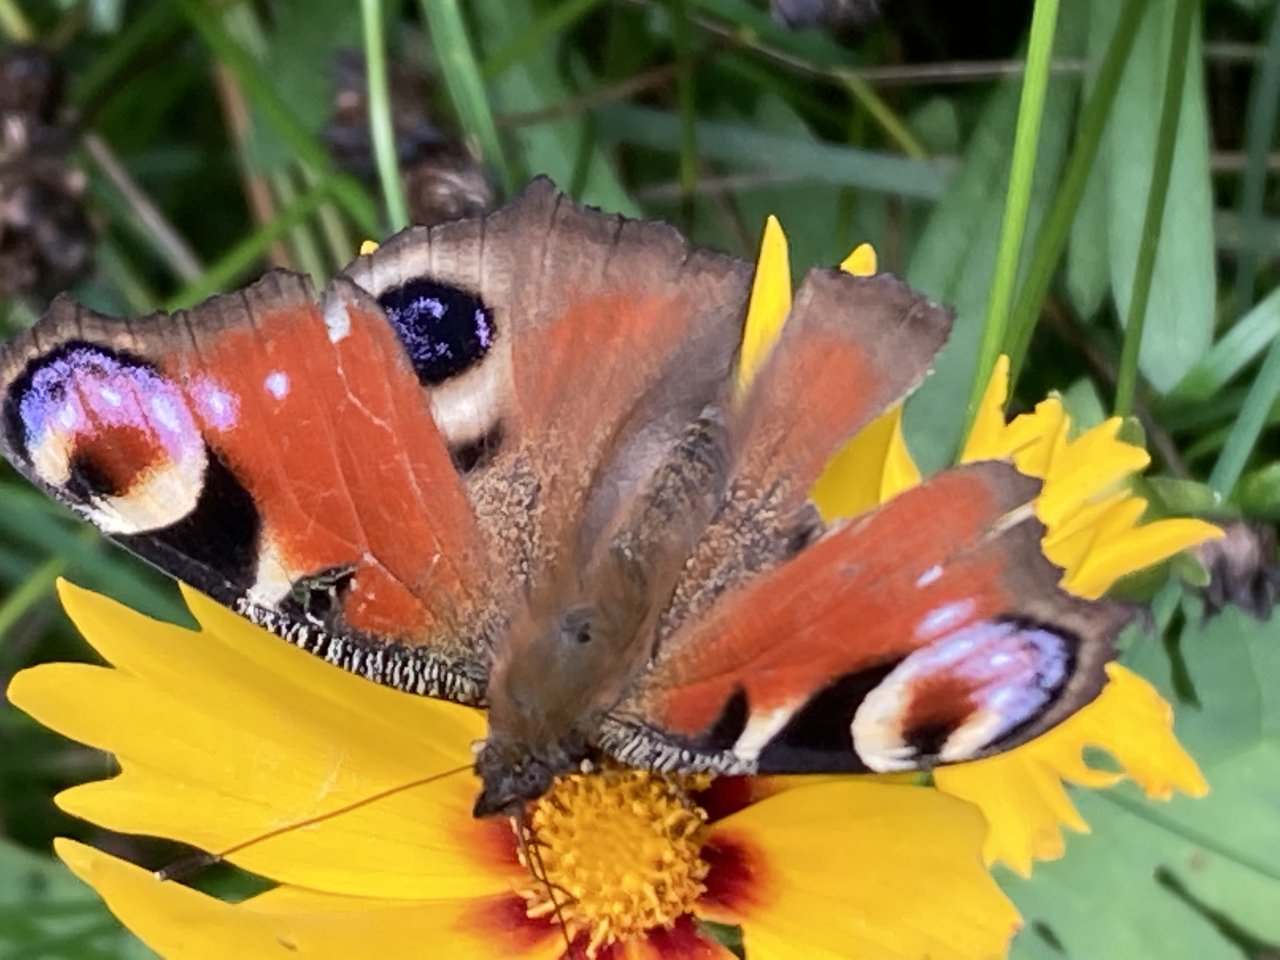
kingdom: Animalia
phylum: Arthropoda
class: Insecta
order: Lepidoptera
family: Nymphalidae
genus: Aglais
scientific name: Aglais io
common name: European Peacock
